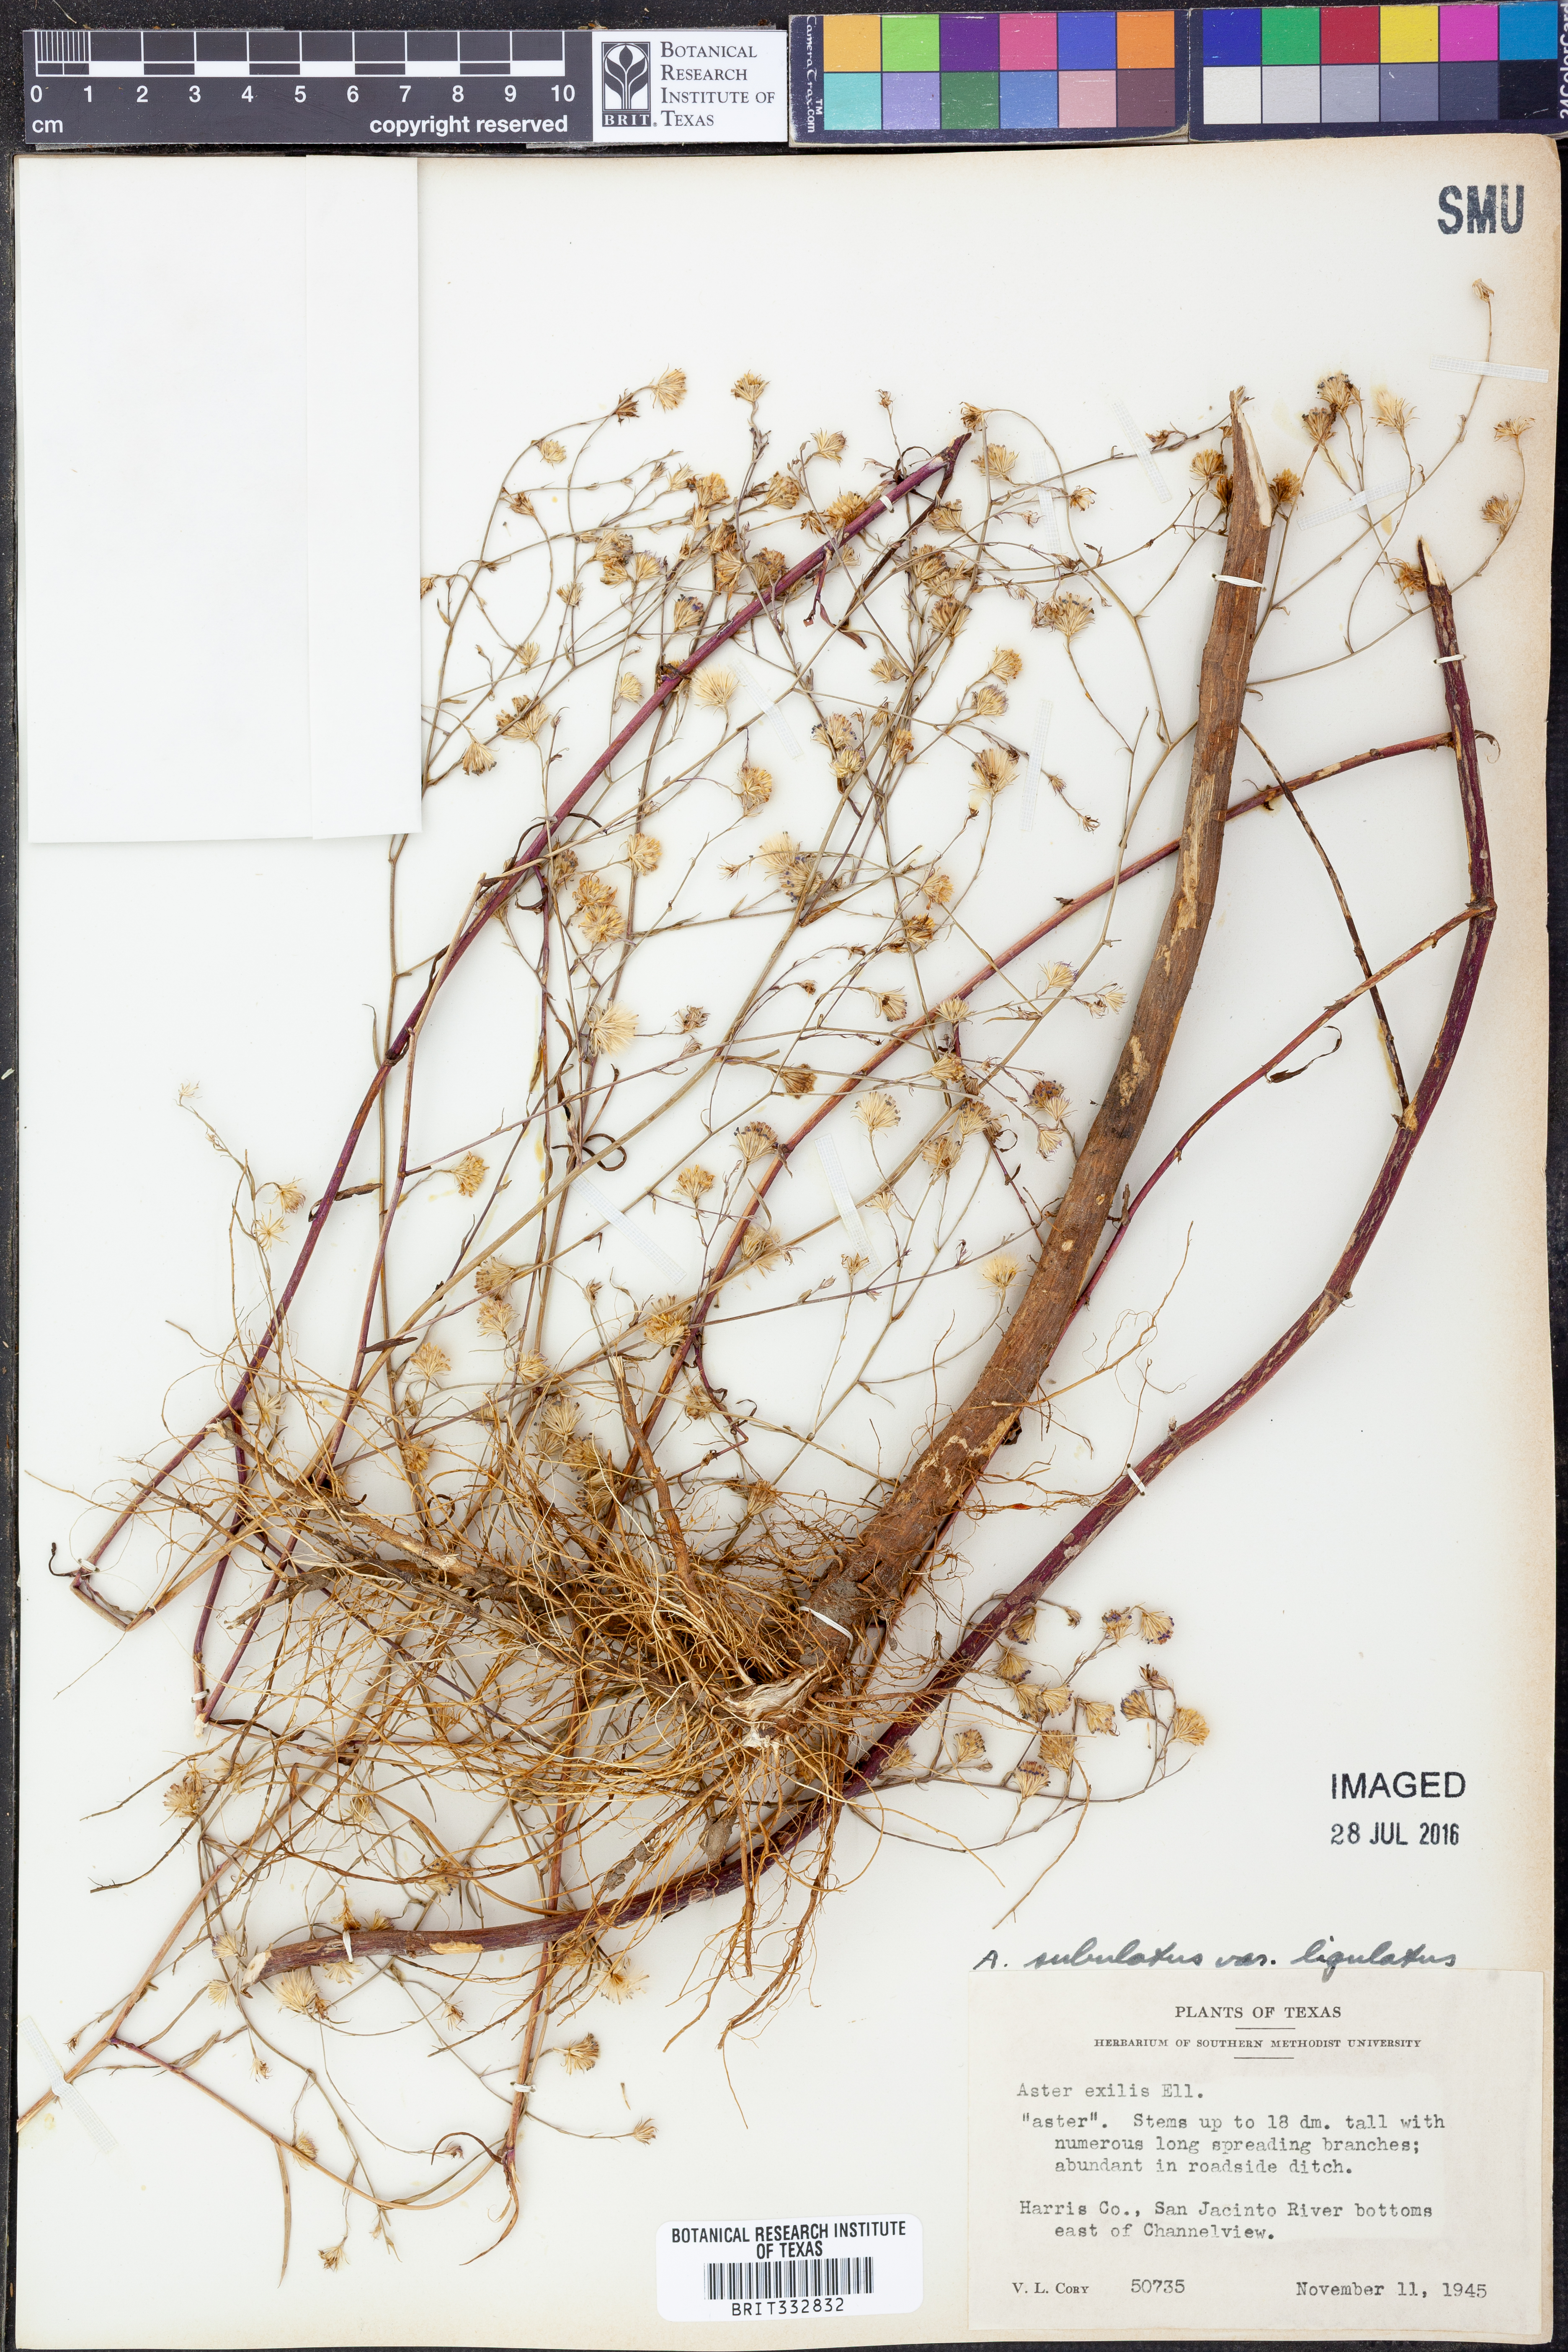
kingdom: Plantae
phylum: Tracheophyta
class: Magnoliopsida
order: Asterales
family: Asteraceae
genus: Symphyotrichum
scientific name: Symphyotrichum divaricatum
